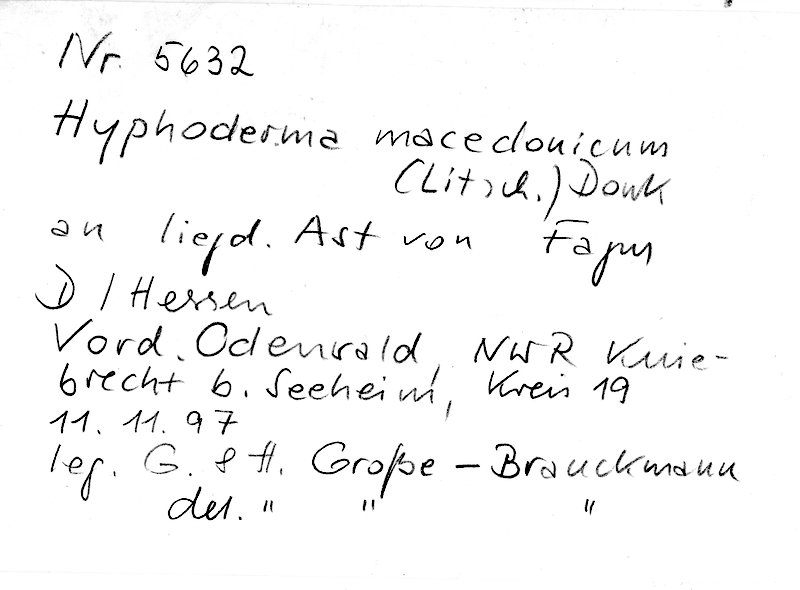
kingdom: Plantae
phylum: Tracheophyta
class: Magnoliopsida
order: Fagales
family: Fagaceae
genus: Fagus
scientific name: Fagus sylvatica
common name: Beech
